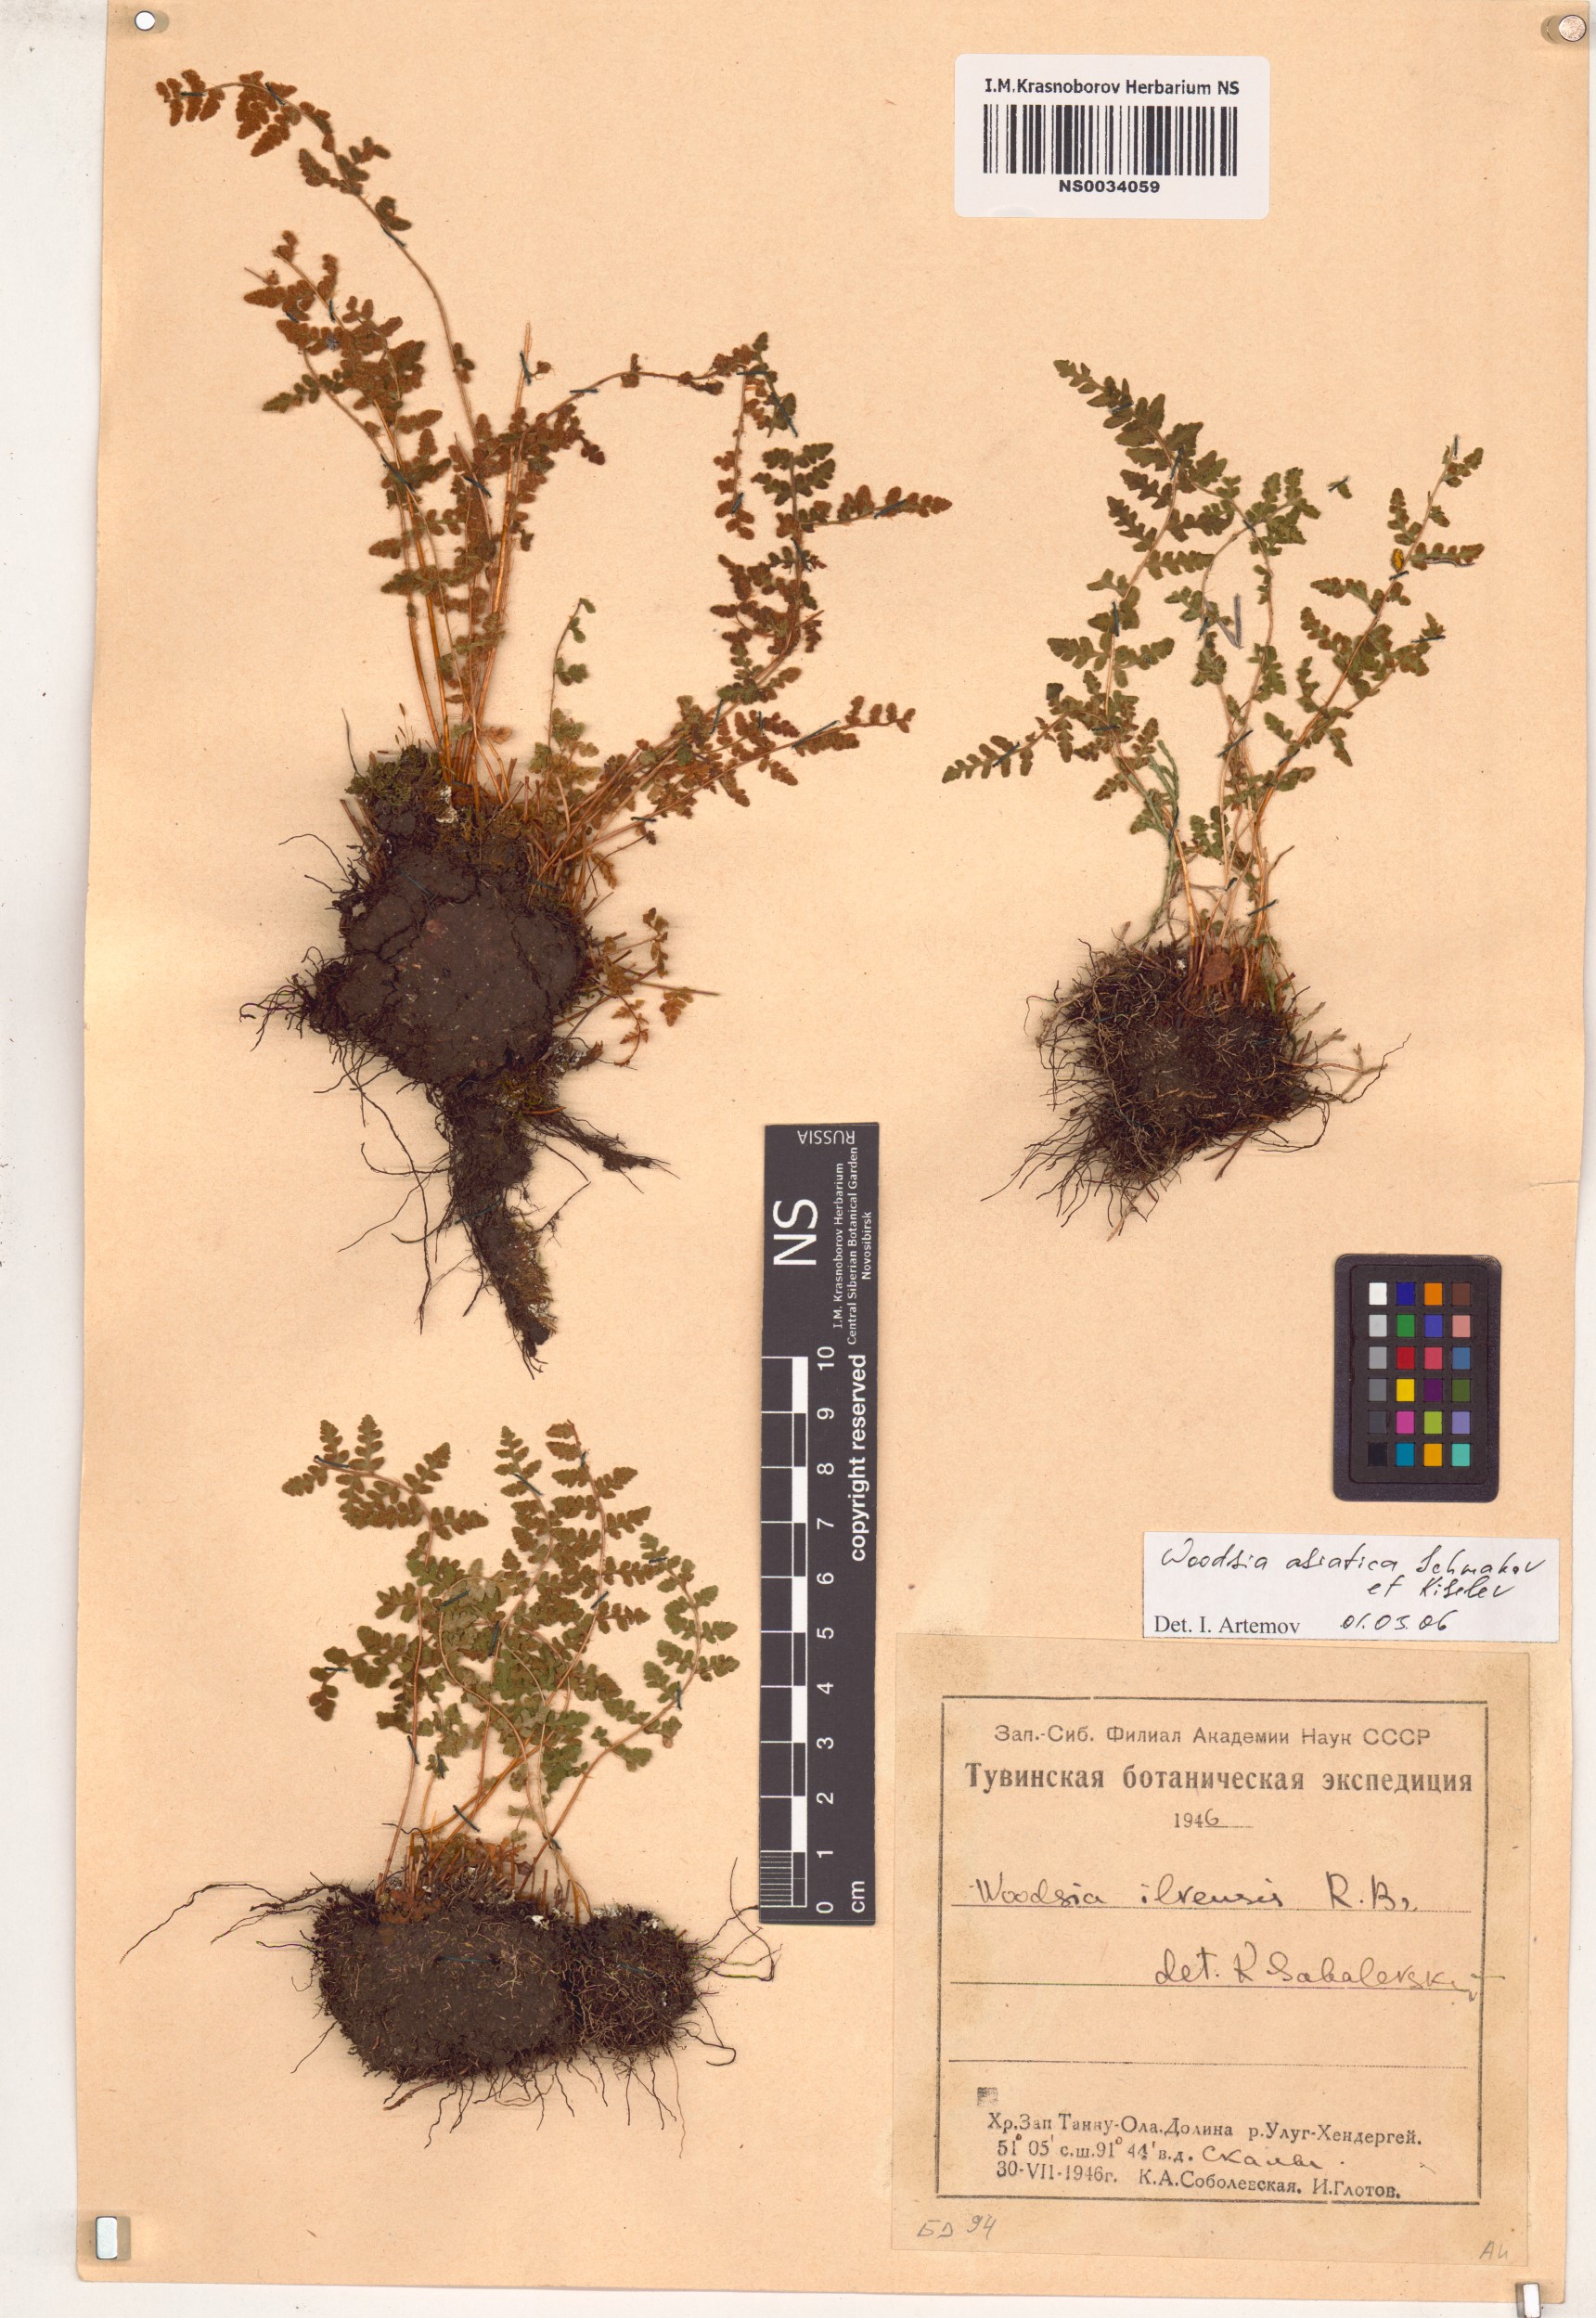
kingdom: Plantae
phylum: Tracheophyta
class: Polypodiopsida
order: Polypodiales
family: Woodsiaceae
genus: Woodsia
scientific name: Woodsia asiatica
